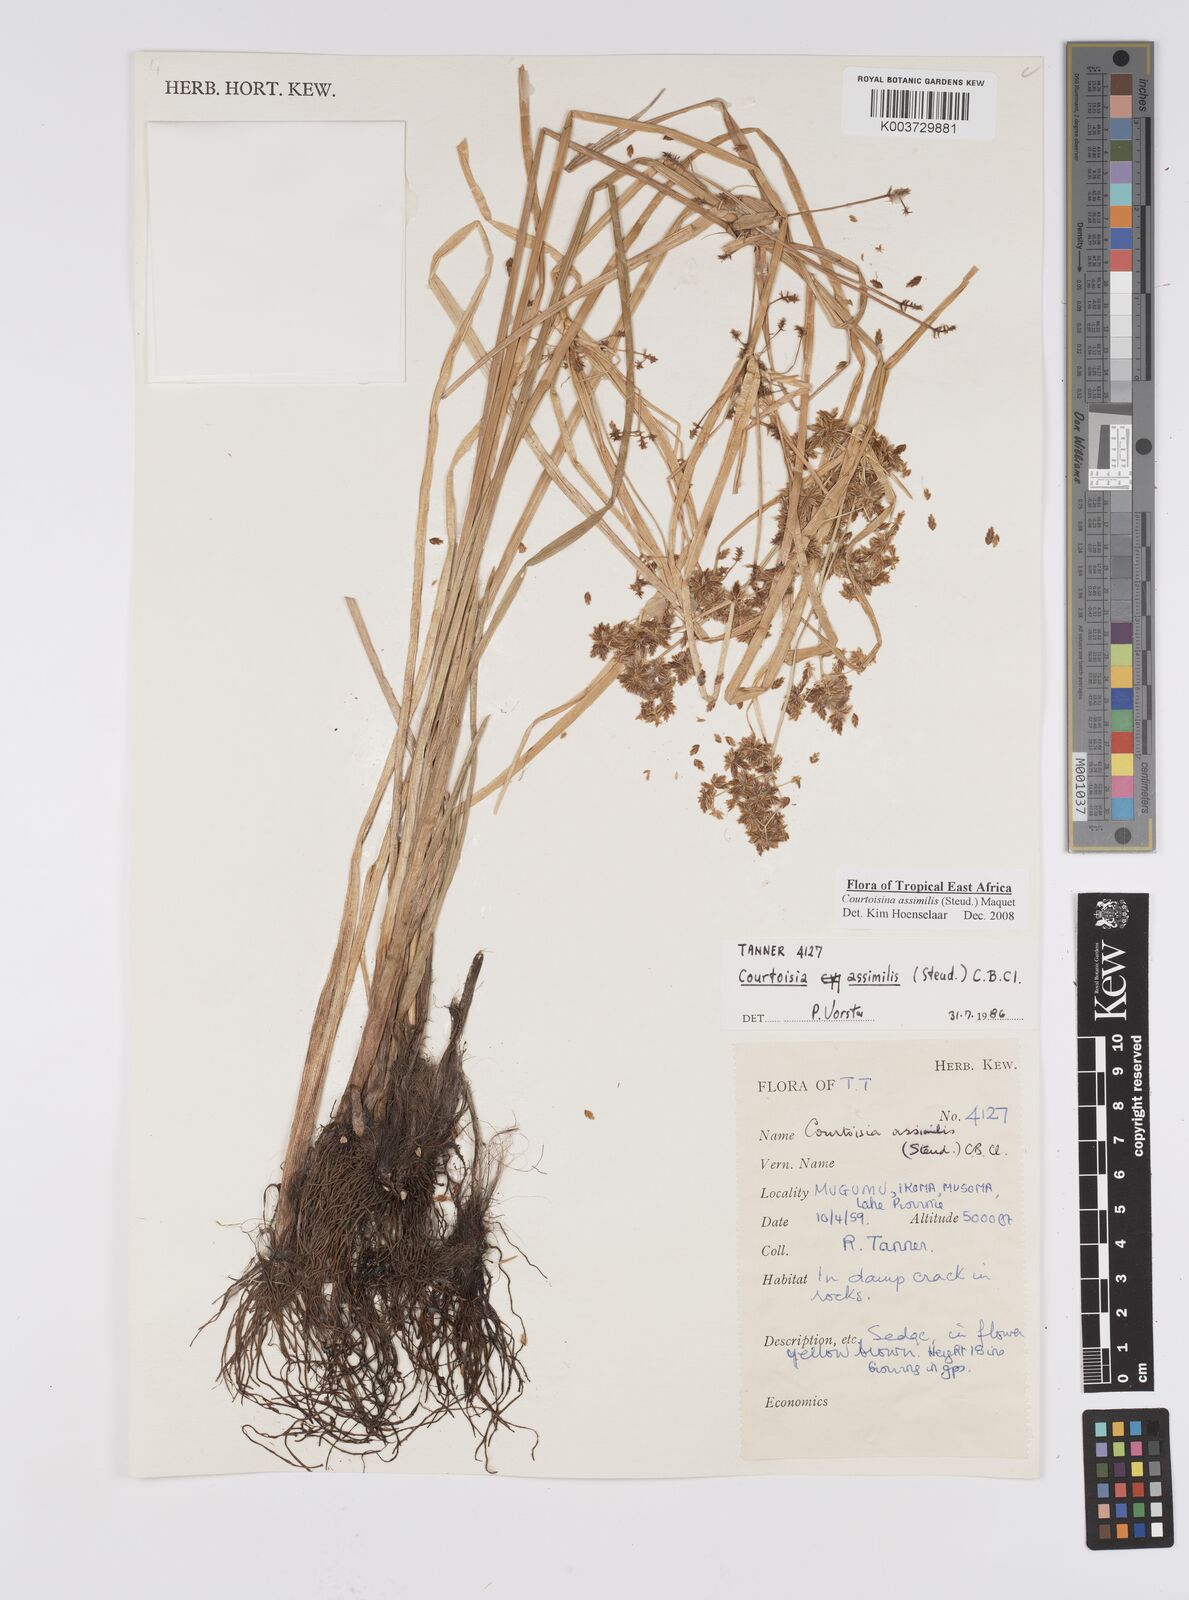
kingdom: Plantae
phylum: Tracheophyta
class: Liliopsida
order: Poales
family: Cyperaceae
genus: Cyperus
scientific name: Cyperus assimilis
